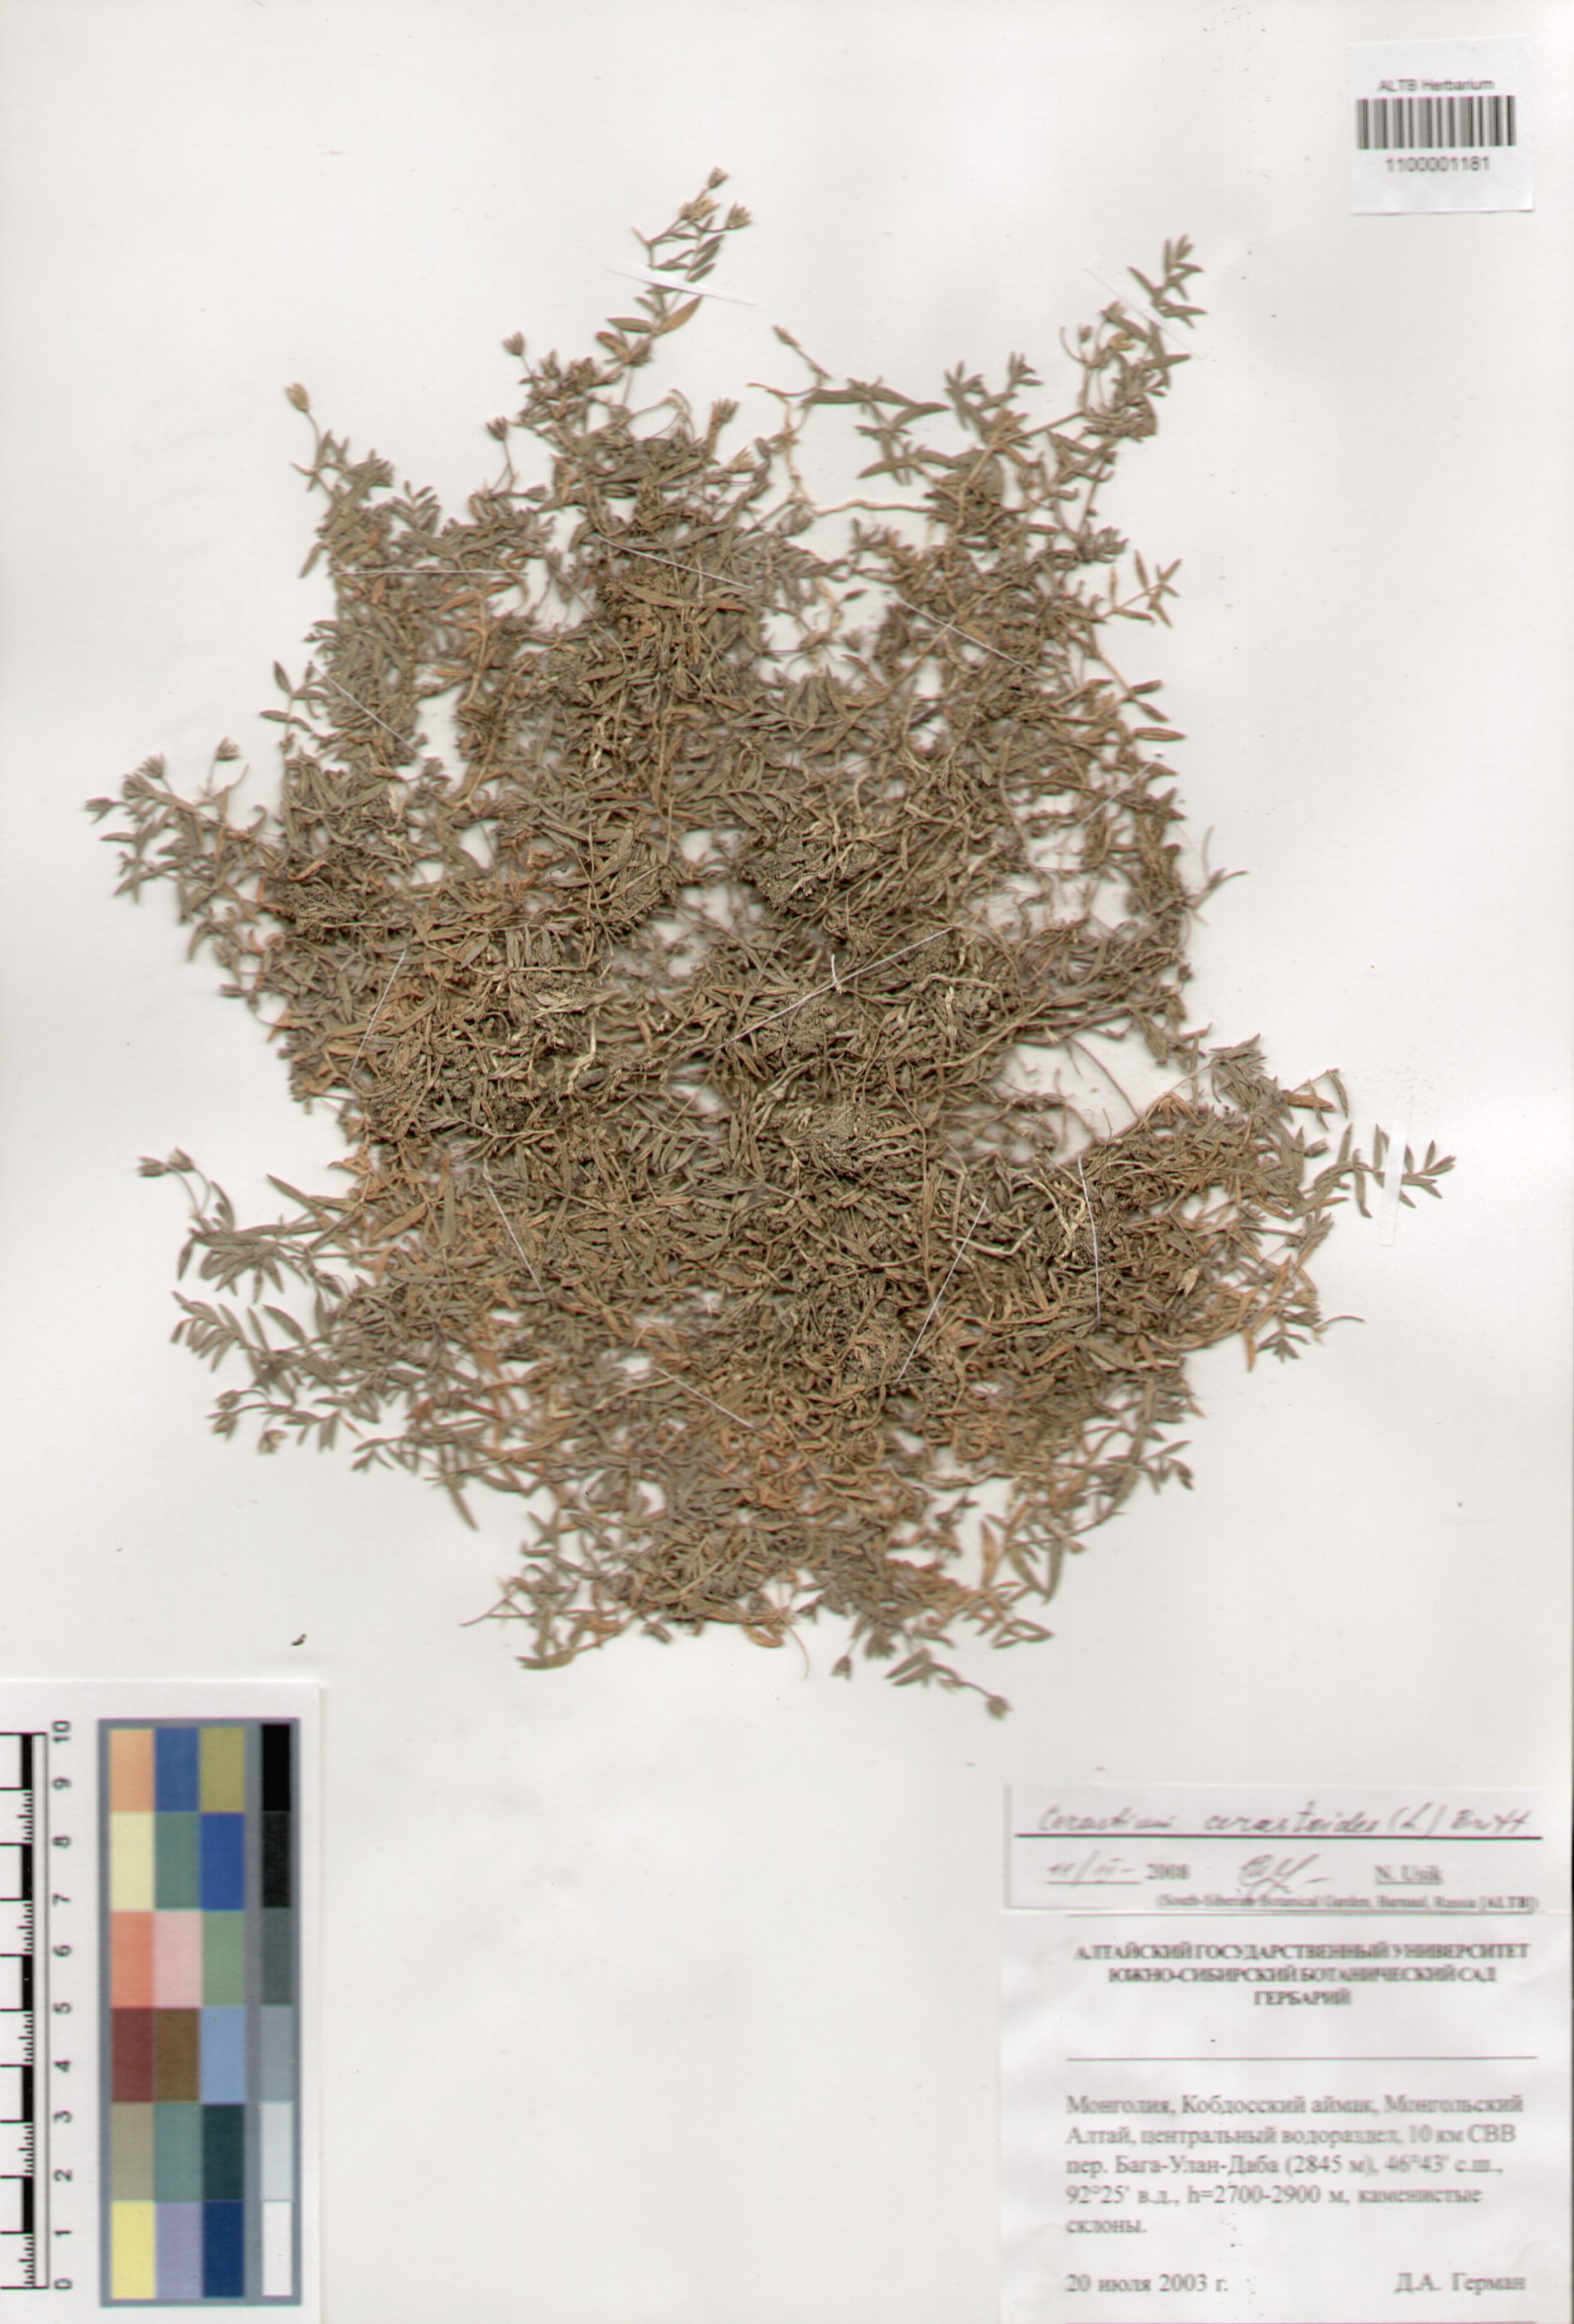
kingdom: Plantae
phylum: Tracheophyta
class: Magnoliopsida
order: Caryophyllales
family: Caryophyllaceae
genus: Dichodon
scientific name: Dichodon cerastoides
